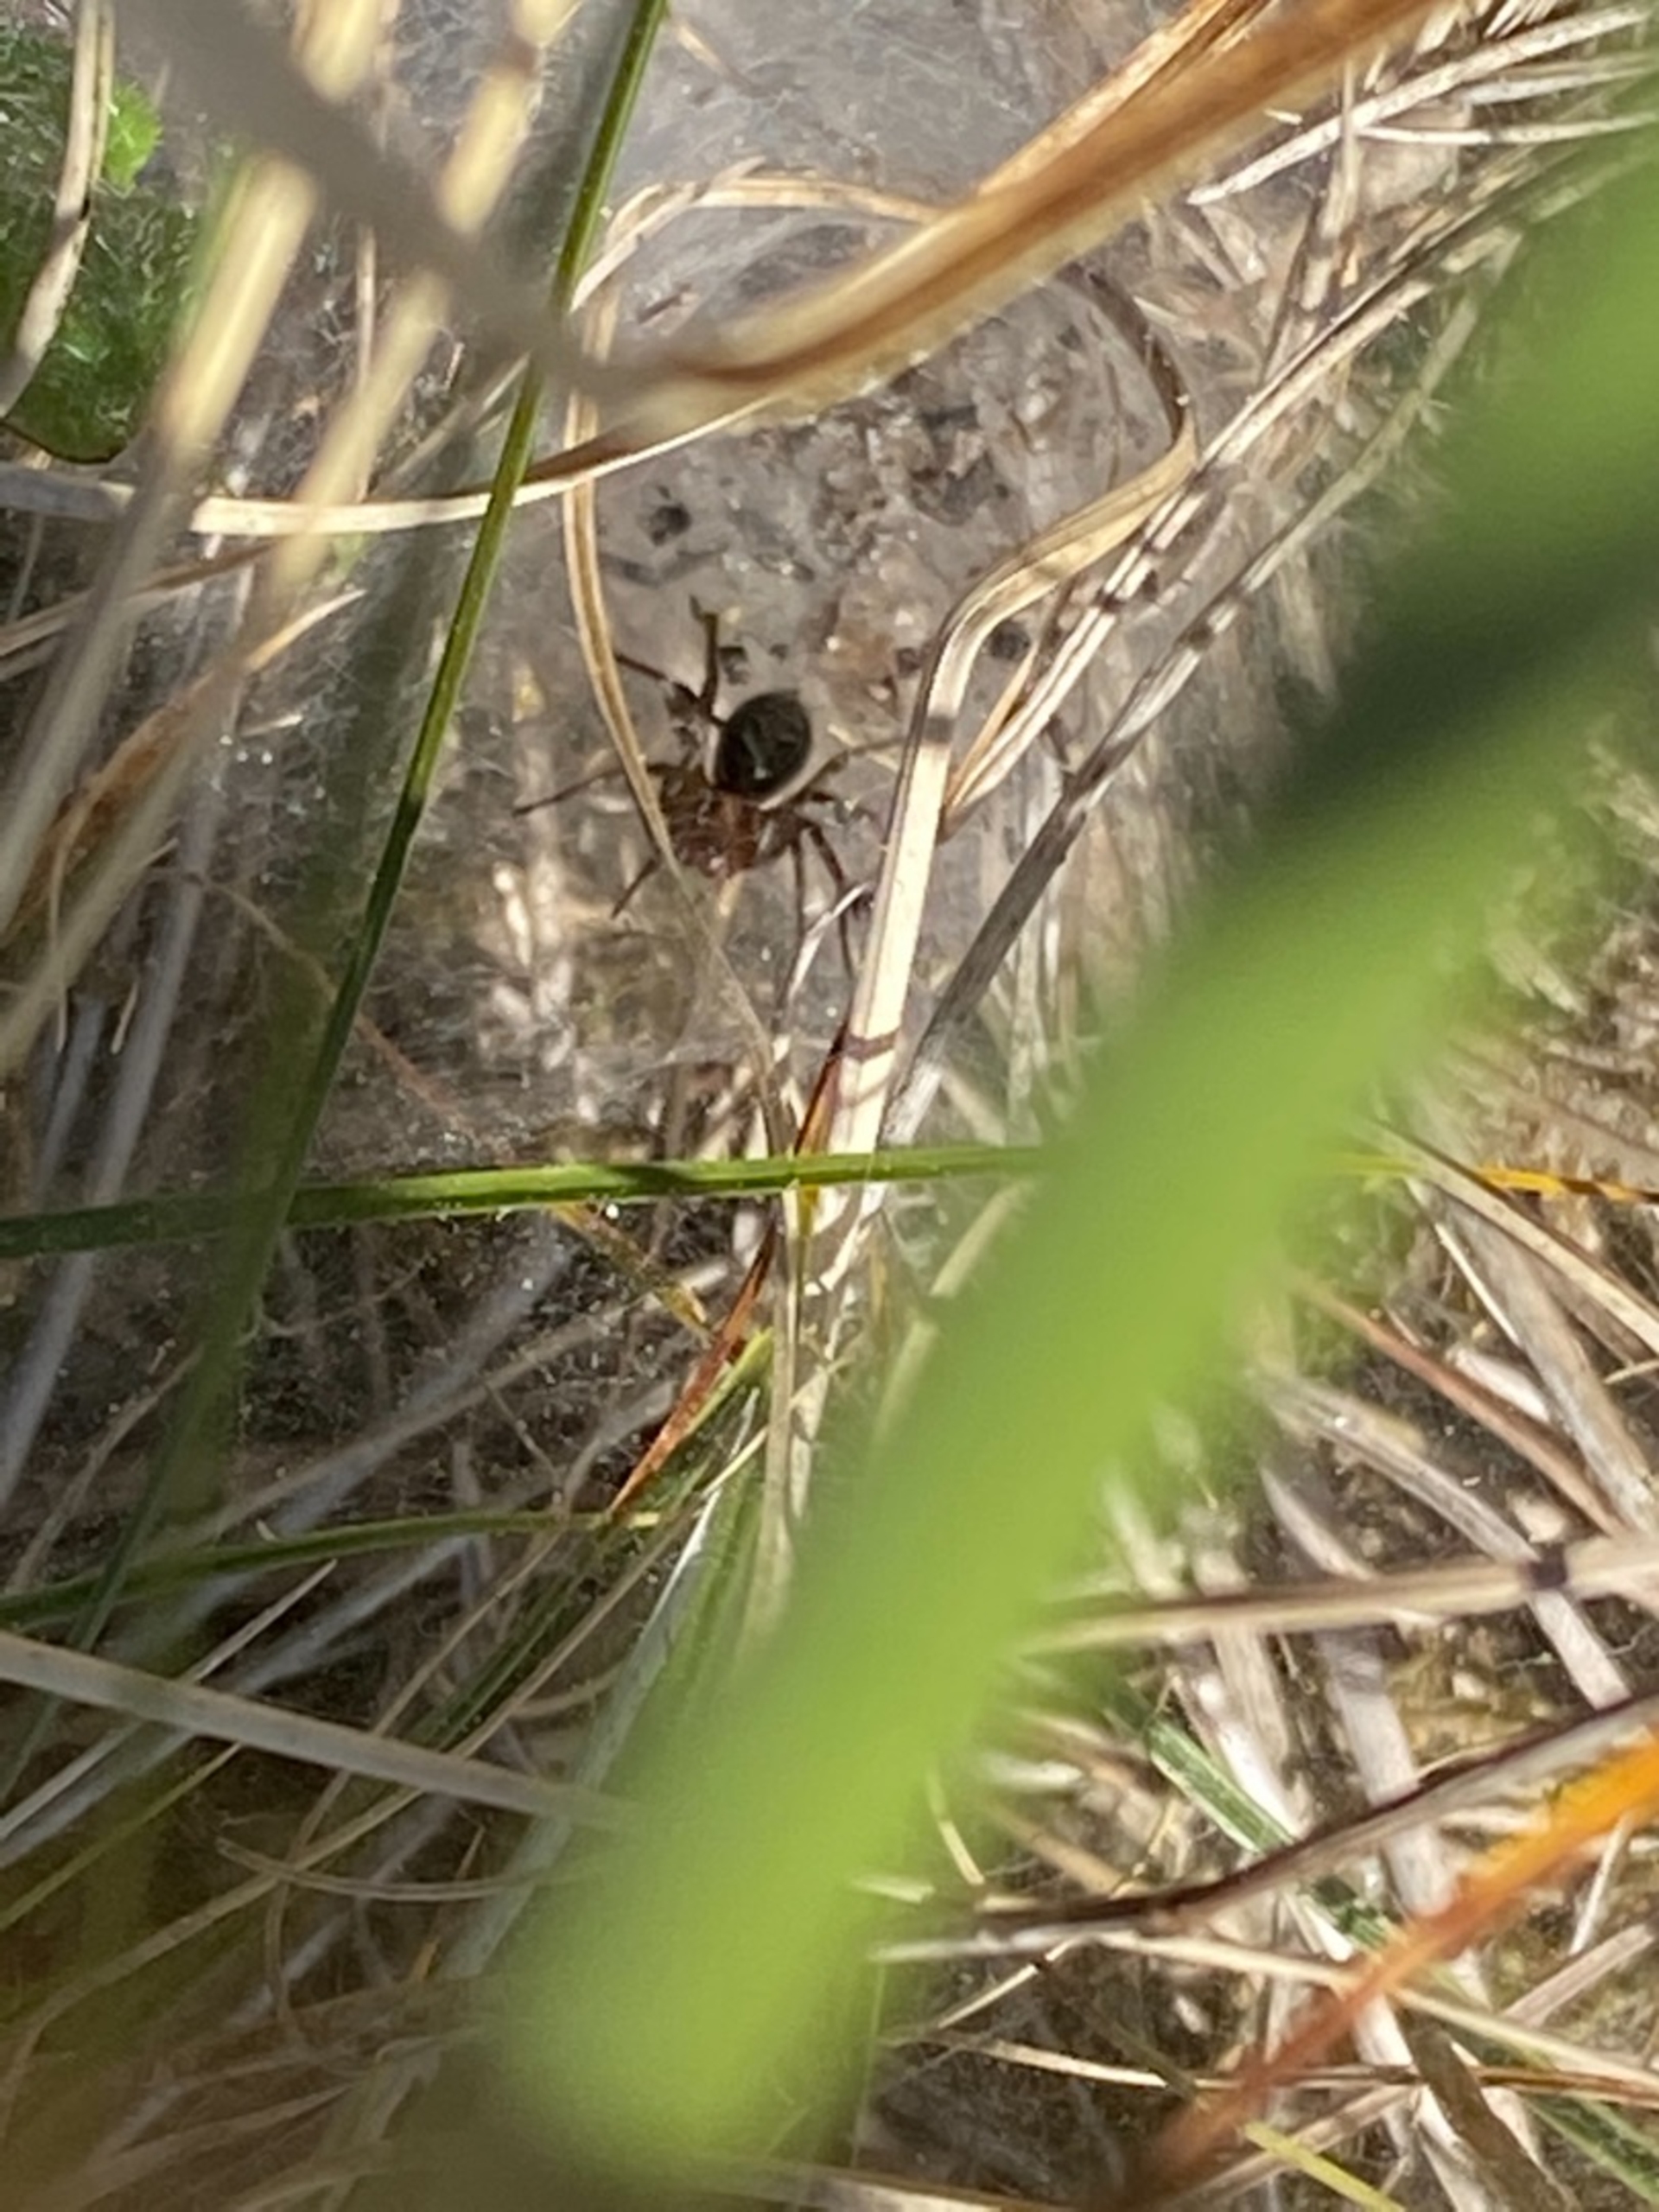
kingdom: Animalia
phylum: Arthropoda
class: Arachnida
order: Araneae
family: Agelenidae
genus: Agelena
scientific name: Agelena labyrinthica
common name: Labyrintedderkop
